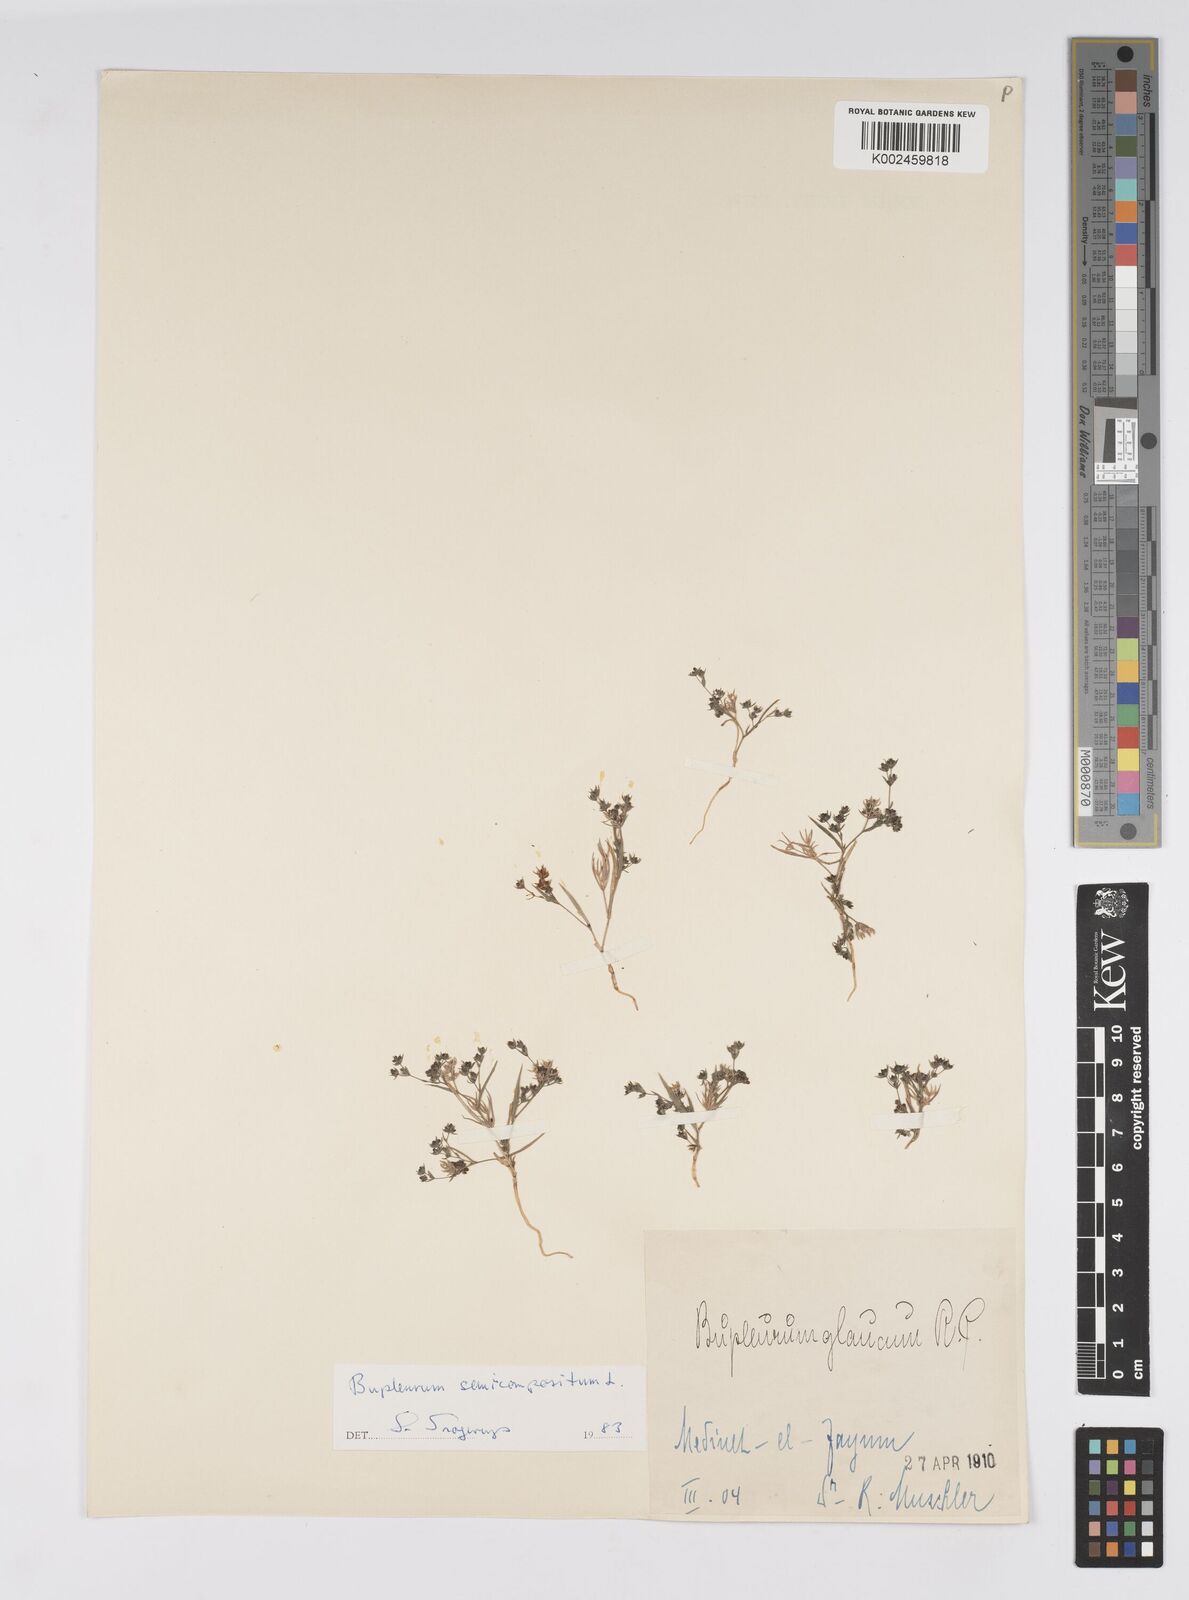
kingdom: Plantae
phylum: Tracheophyta
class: Magnoliopsida
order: Apiales
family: Apiaceae
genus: Bupleurum
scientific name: Bupleurum semicompositum
